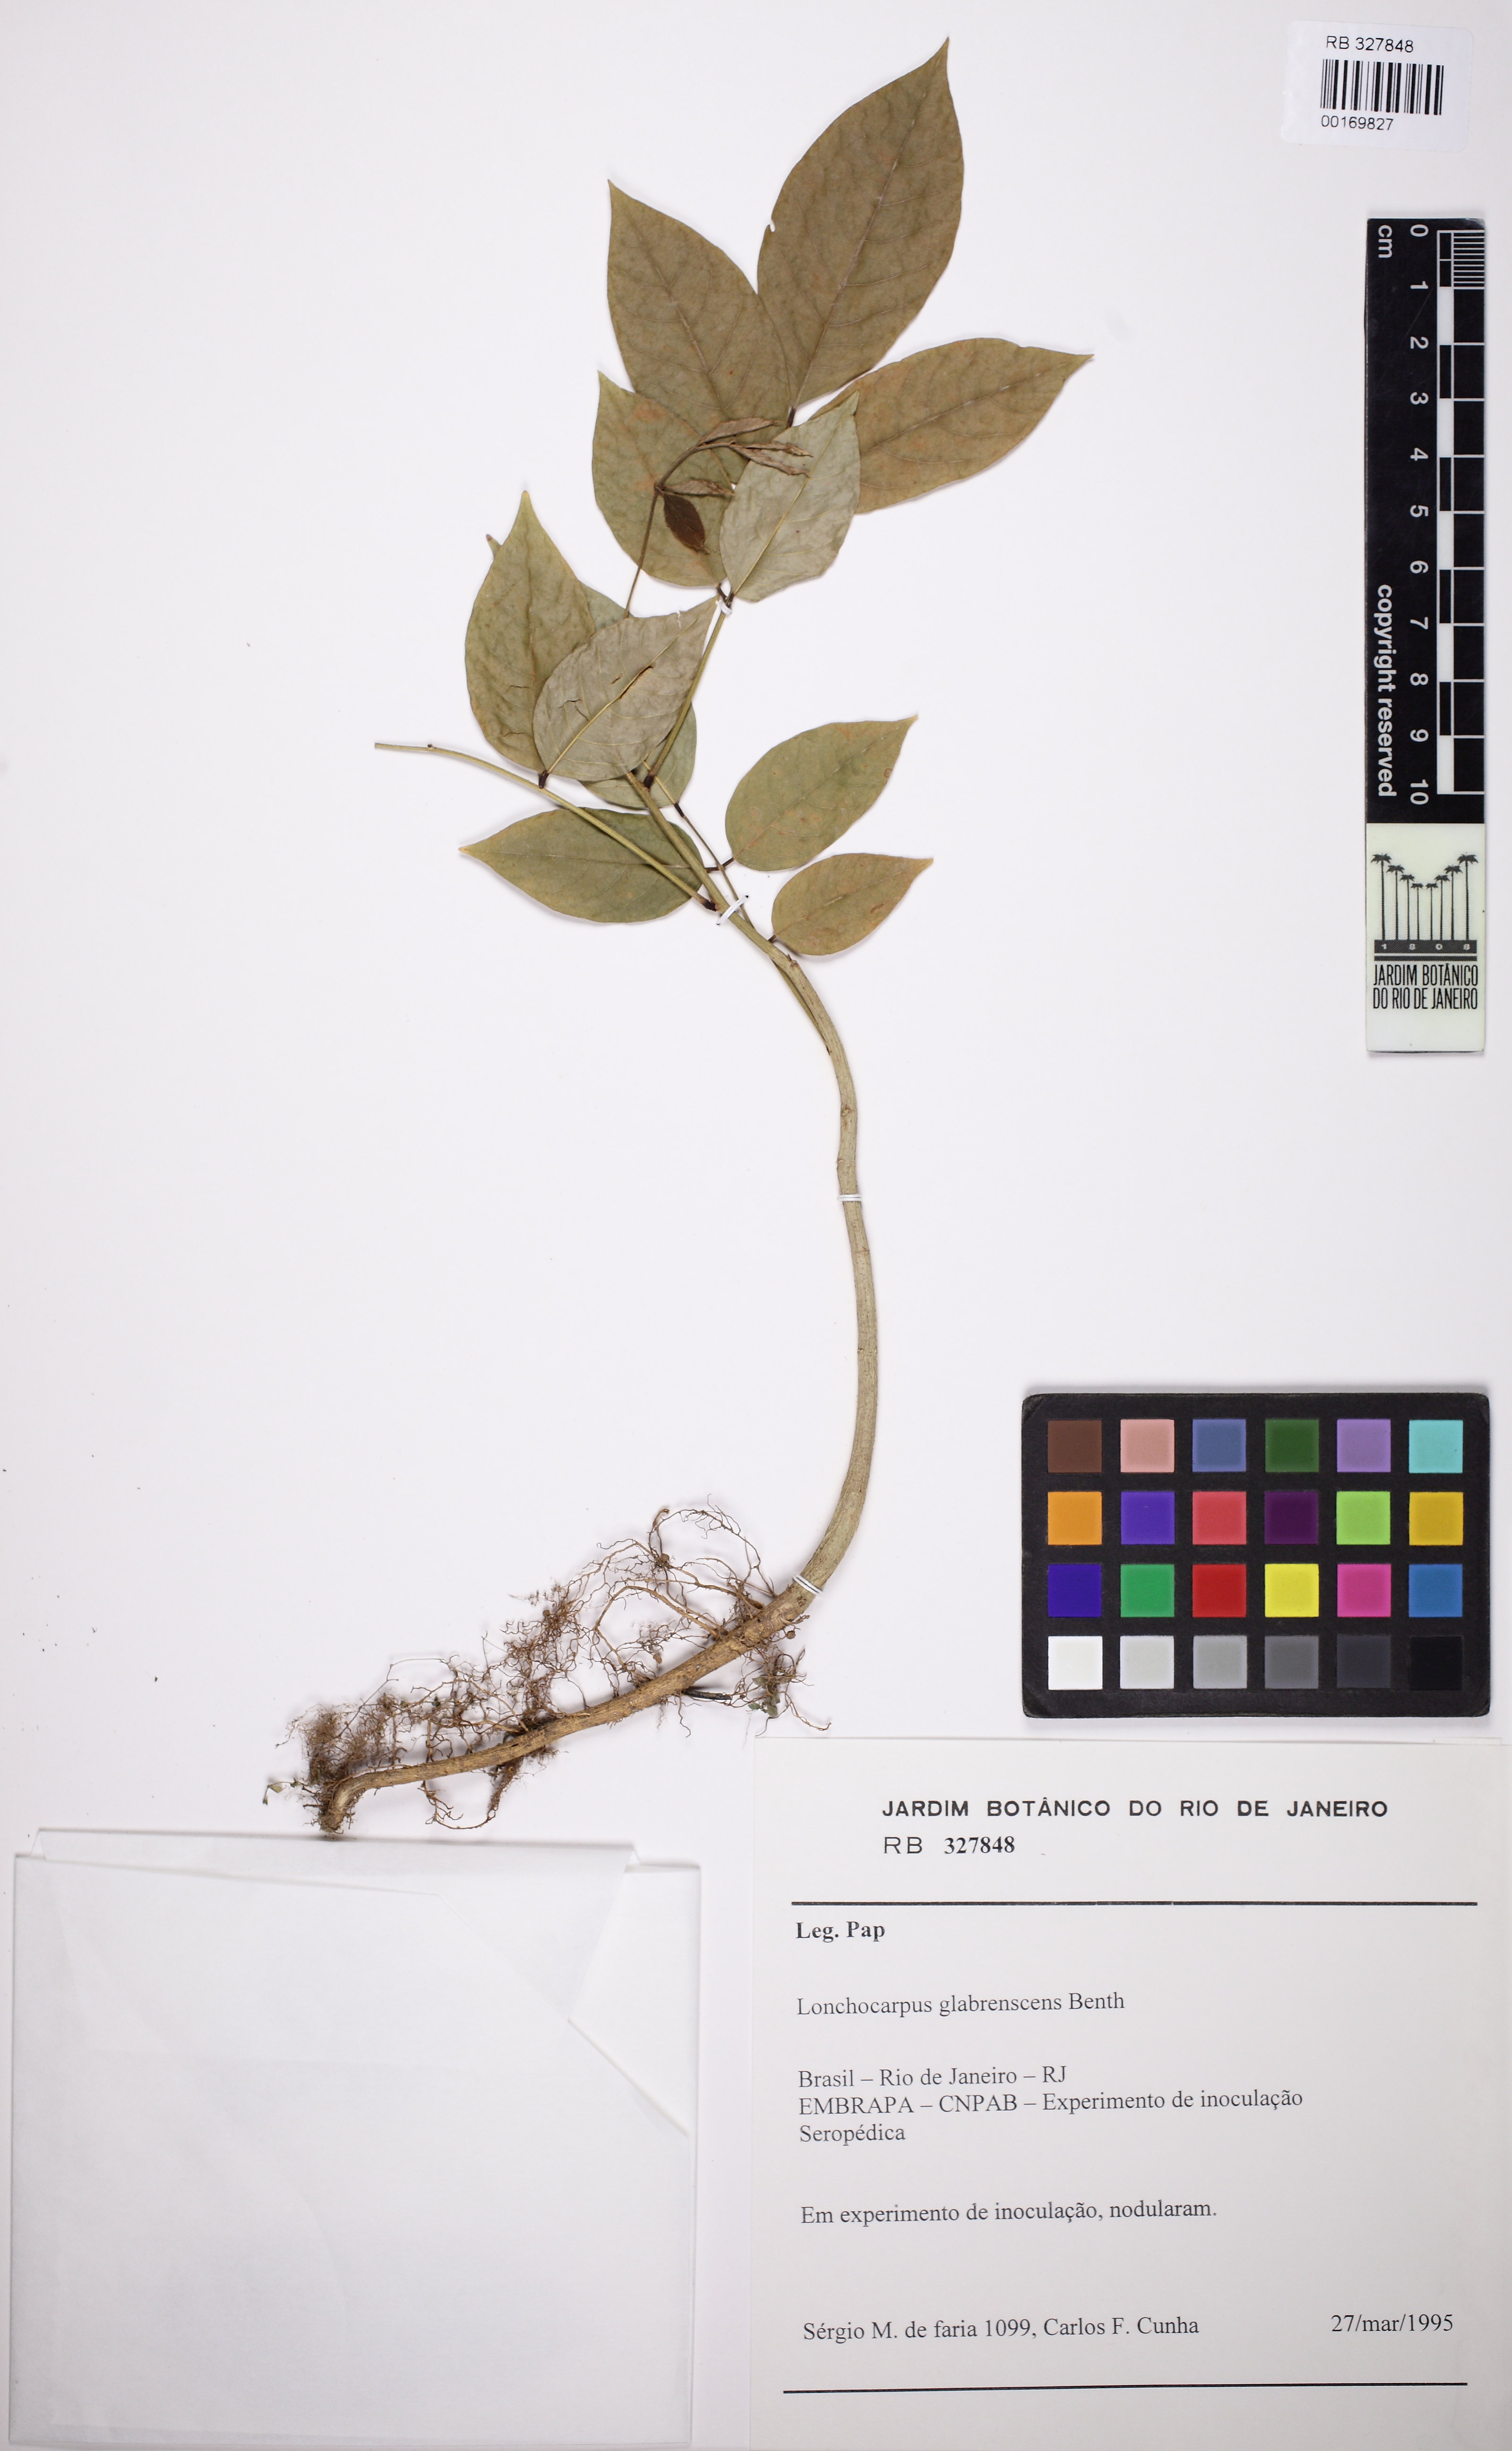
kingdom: Plantae
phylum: Tracheophyta
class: Magnoliopsida
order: Fabales
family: Fabaceae
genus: Deguelia
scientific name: Deguelia densiflora
